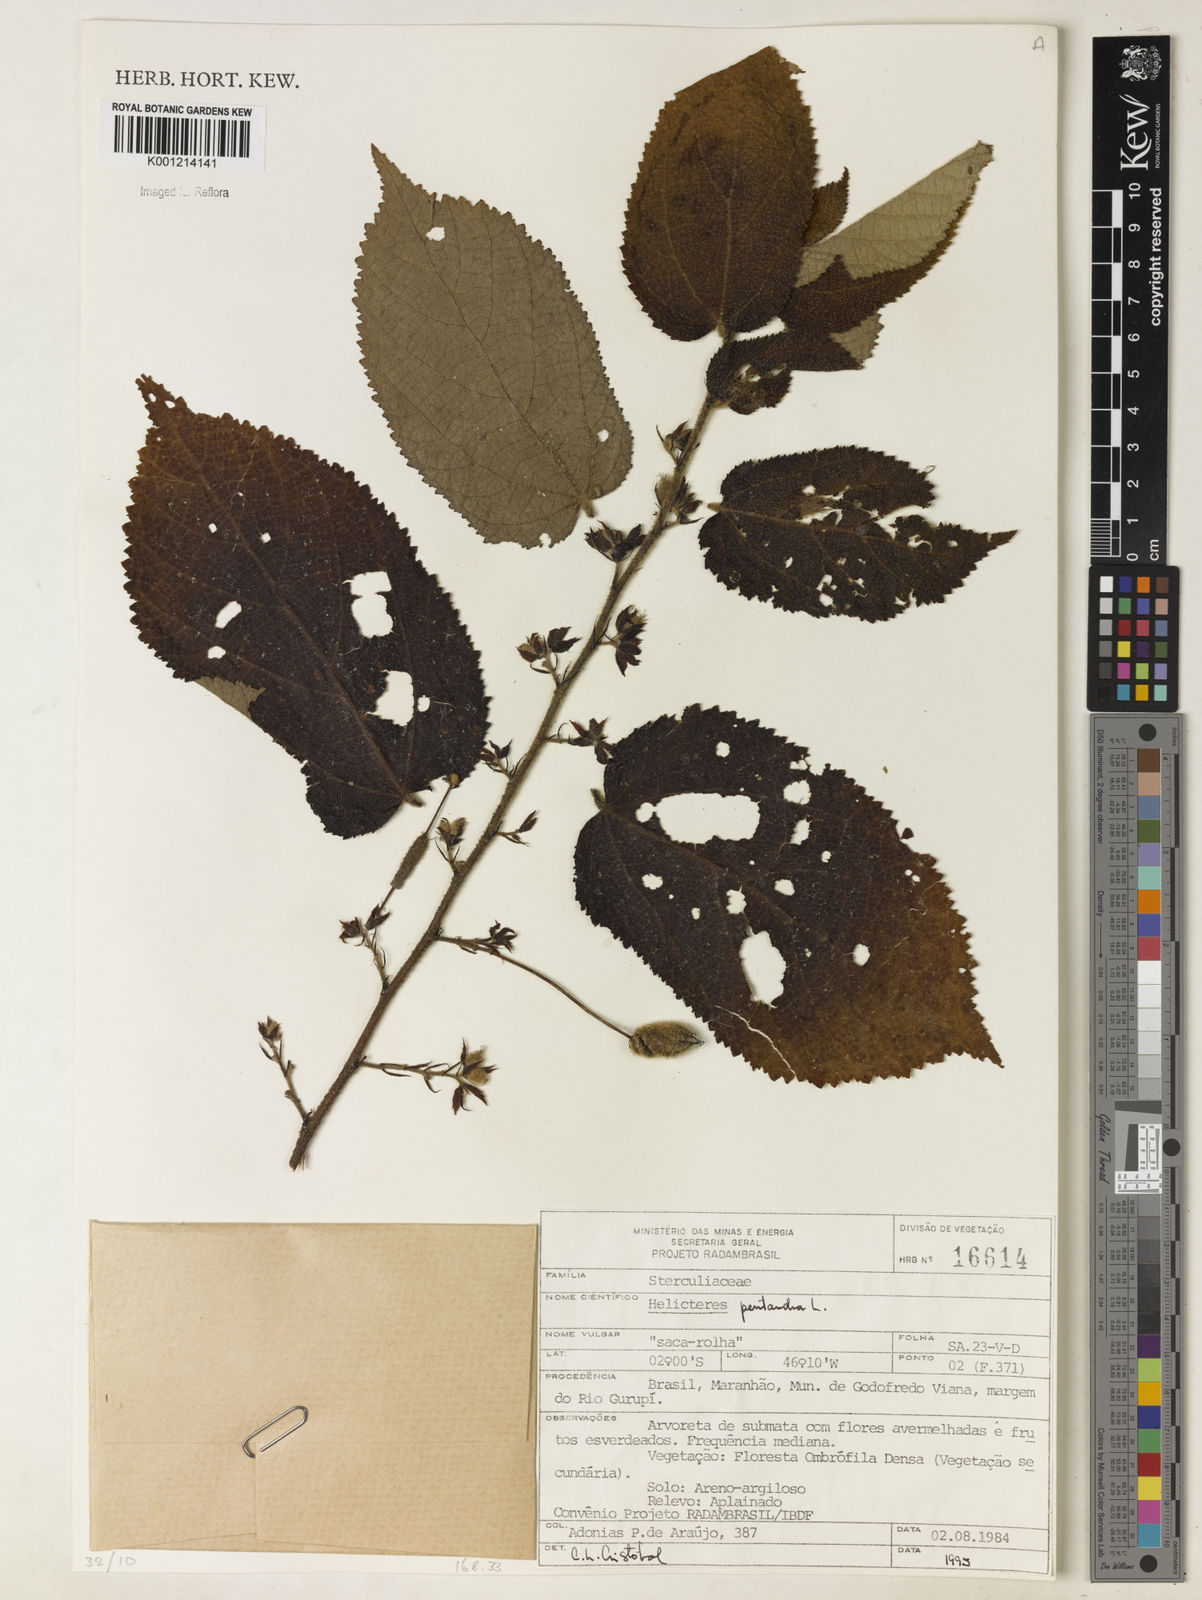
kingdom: Plantae
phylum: Tracheophyta
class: Magnoliopsida
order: Malvales
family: Malvaceae
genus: Helicteres
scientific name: Helicteres pentandra
